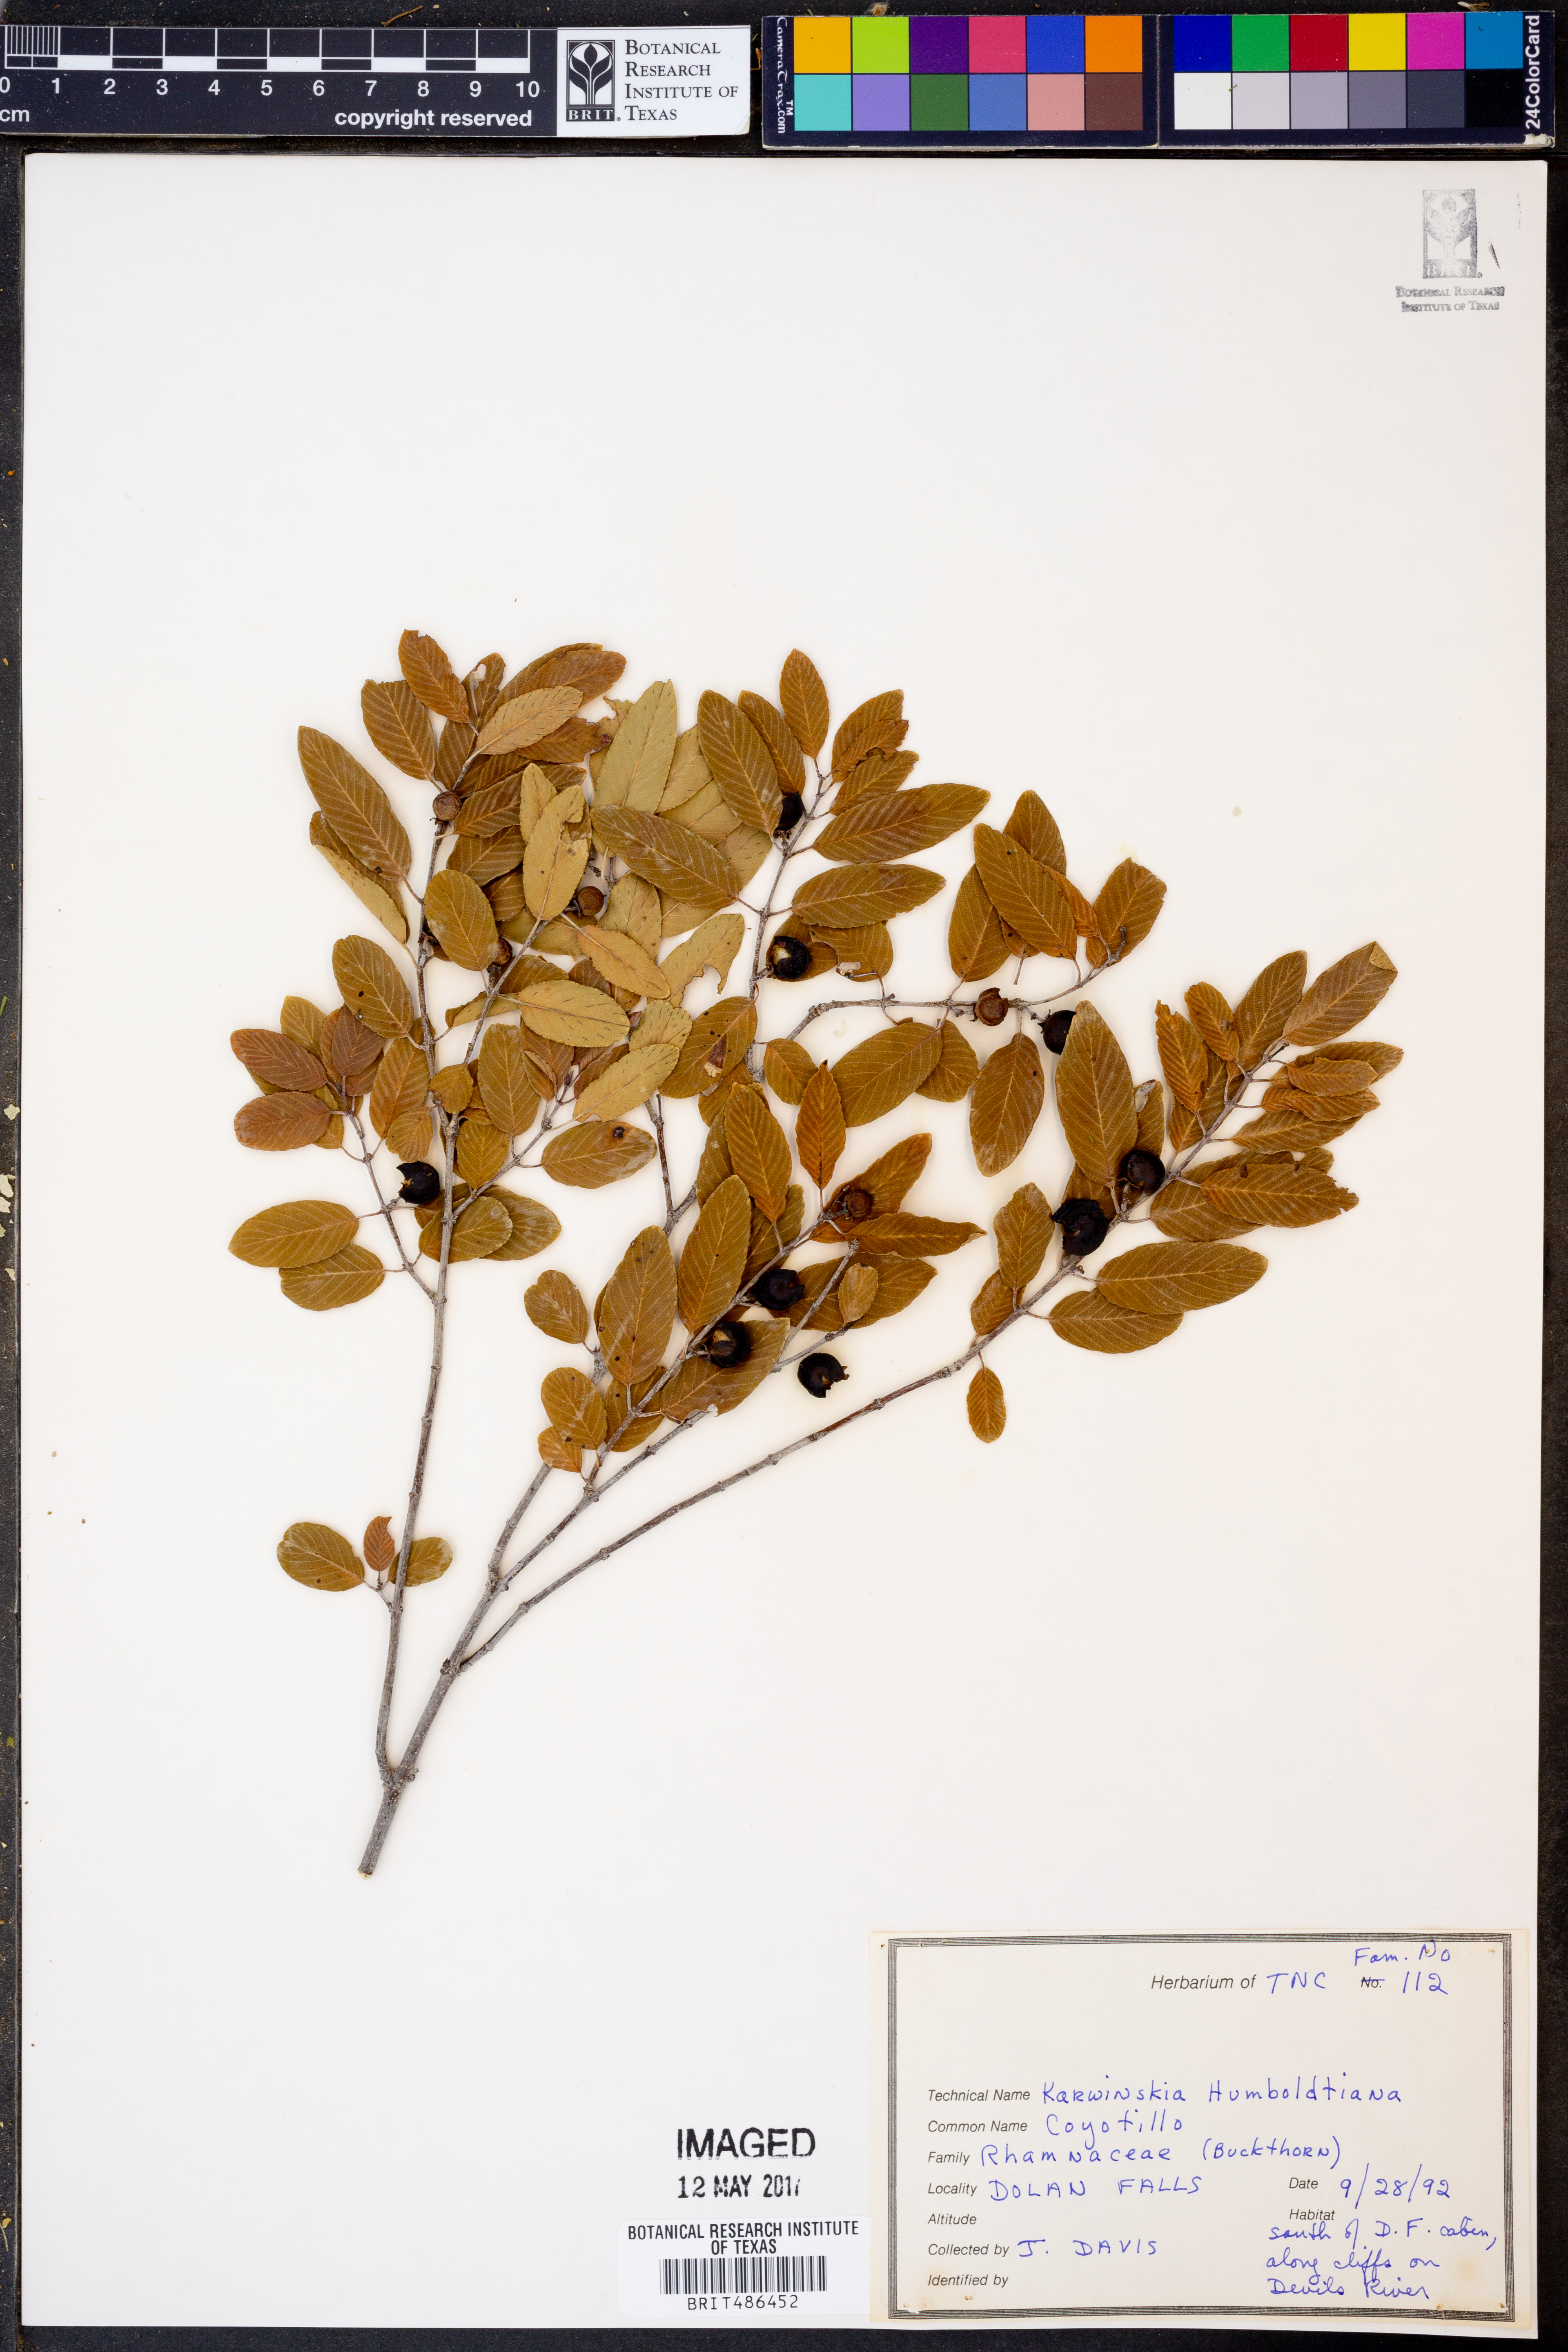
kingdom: Plantae
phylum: Tracheophyta
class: Magnoliopsida
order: Rosales
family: Rhamnaceae
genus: Karwinskia
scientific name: Karwinskia humboldtiana
